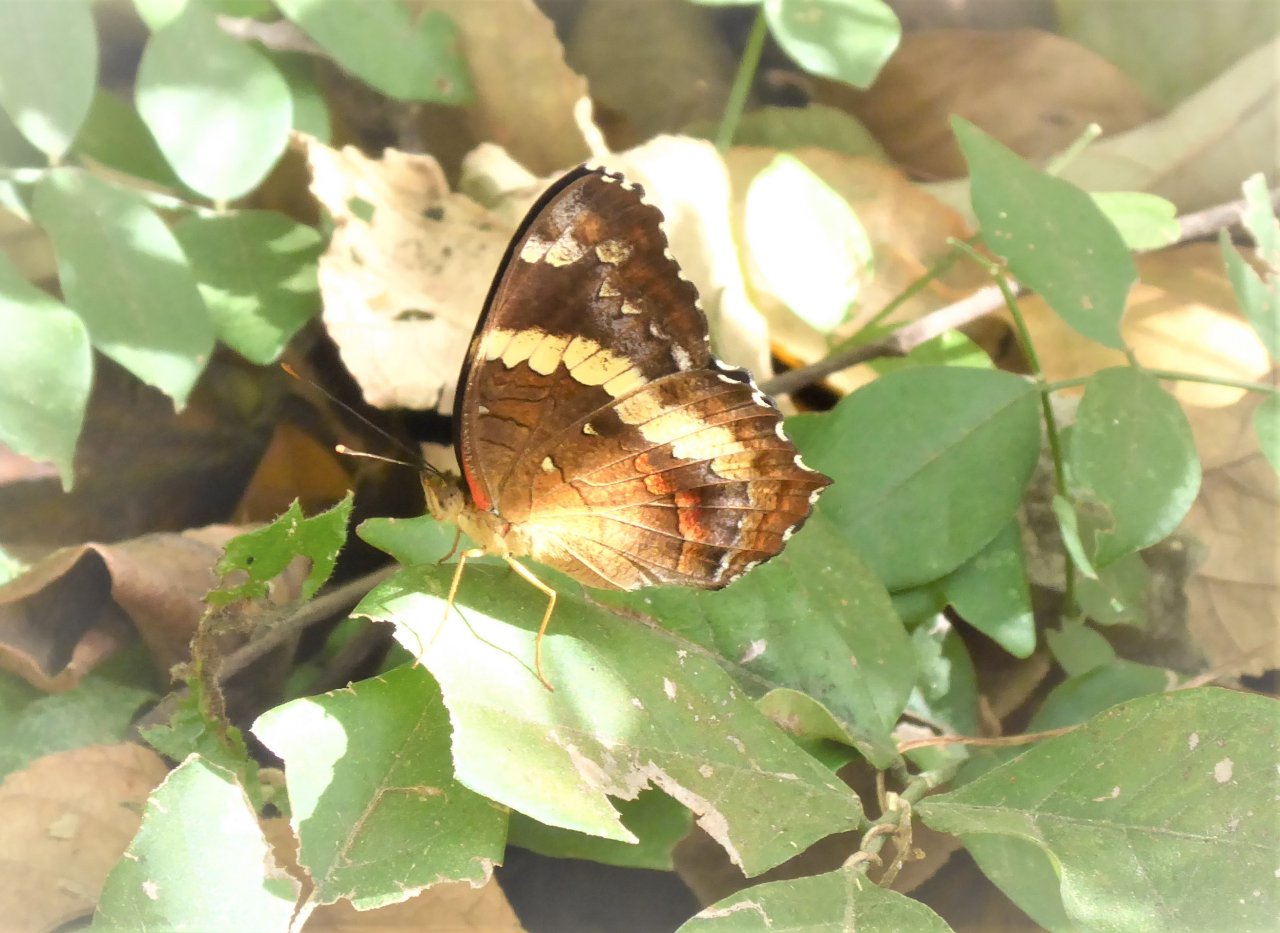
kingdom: Animalia
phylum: Arthropoda
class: Insecta
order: Lepidoptera
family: Nymphalidae
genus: Anartia
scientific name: Anartia fatima
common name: Banded Peacock
